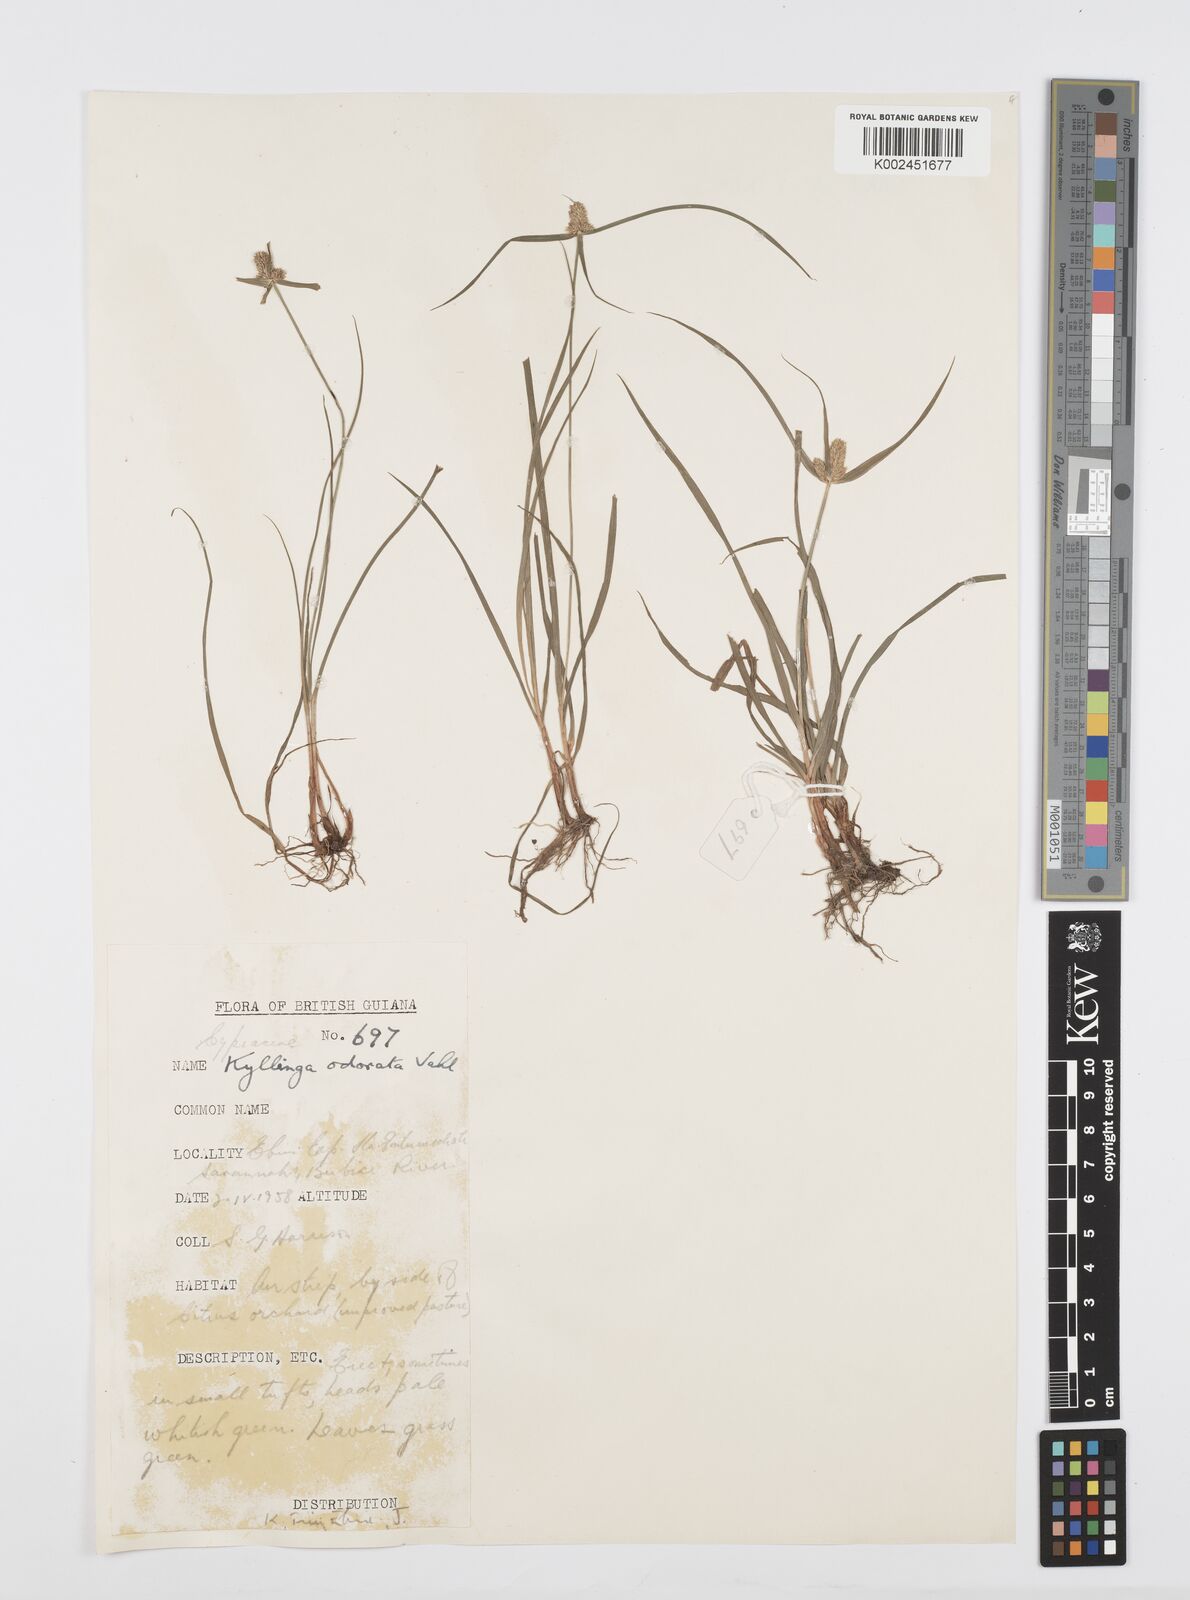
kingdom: Plantae
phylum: Tracheophyta
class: Liliopsida
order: Poales
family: Cyperaceae
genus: Cyperus
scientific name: Cyperus
